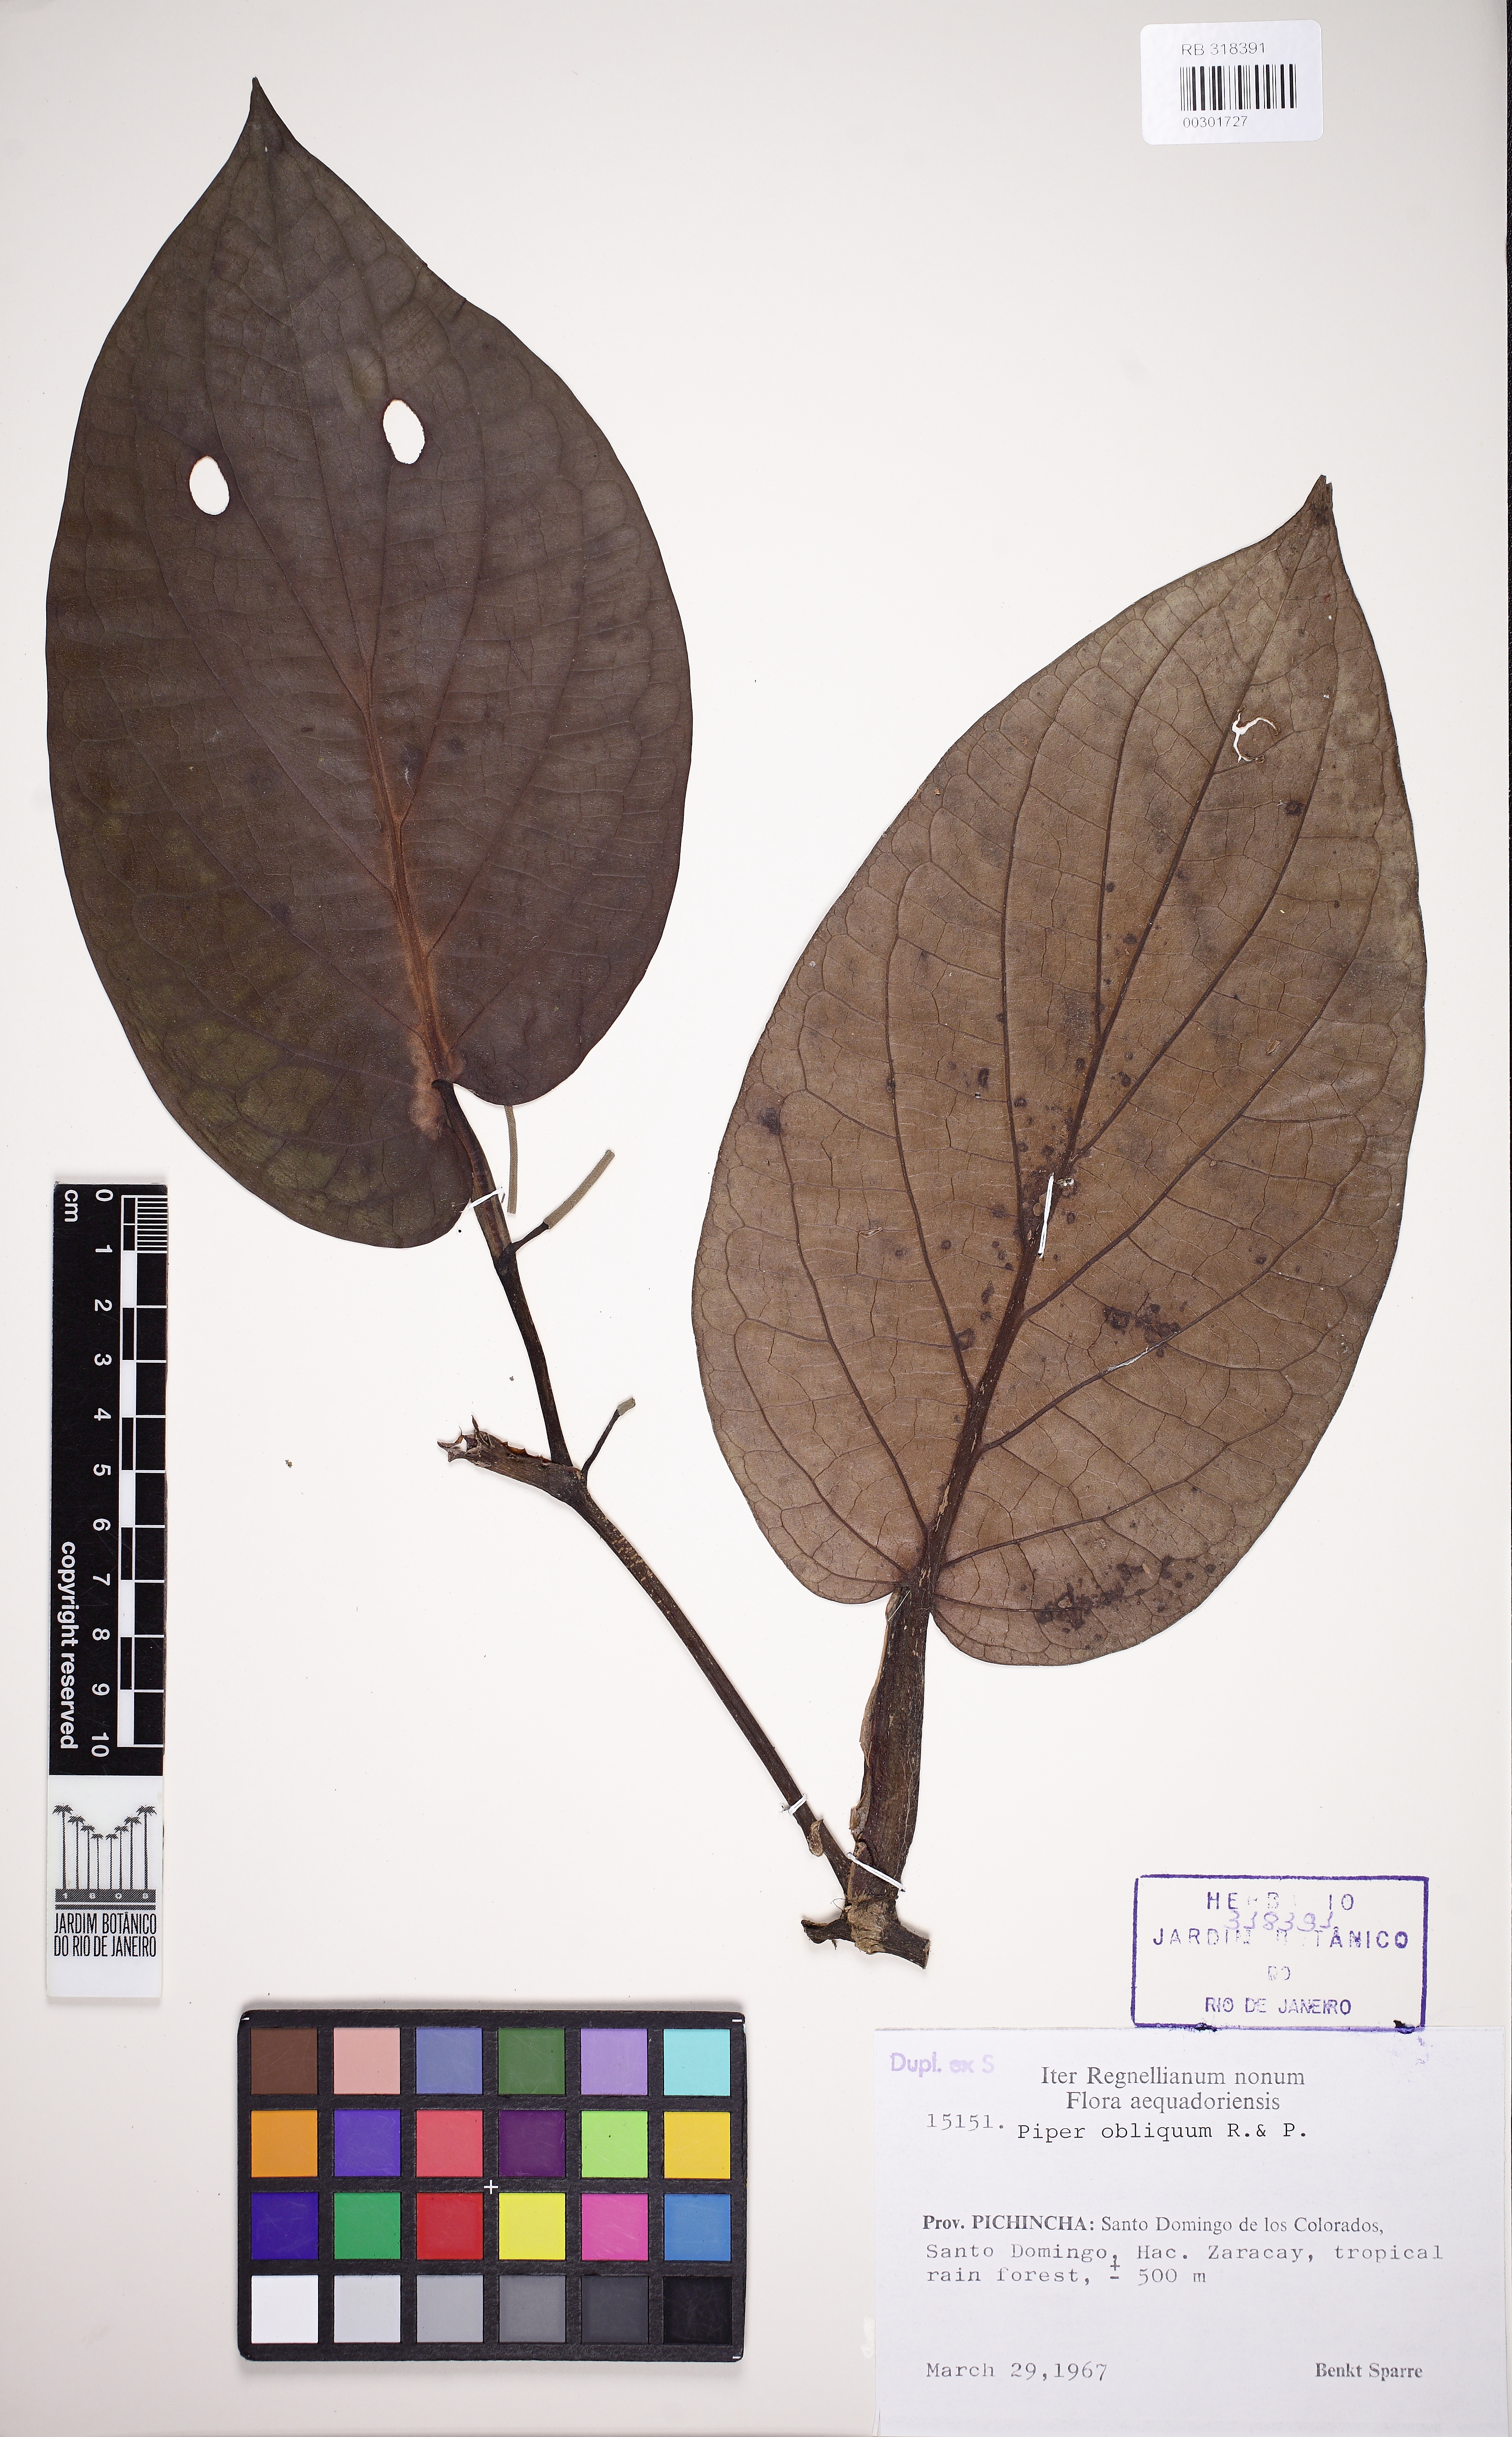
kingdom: Plantae
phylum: Tracheophyta
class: Magnoliopsida
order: Piperales
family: Piperaceae
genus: Piper
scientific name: Piper obliquum
